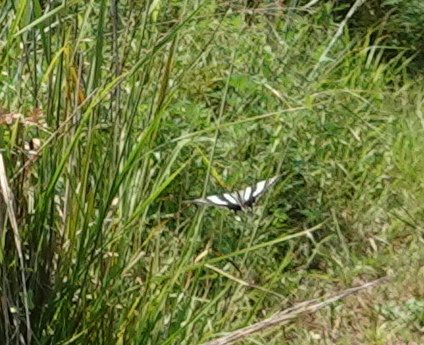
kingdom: Animalia
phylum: Arthropoda
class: Insecta
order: Lepidoptera
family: Papilionidae
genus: Protographium
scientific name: Protographium marcellus
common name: Zebra Swallowtail
